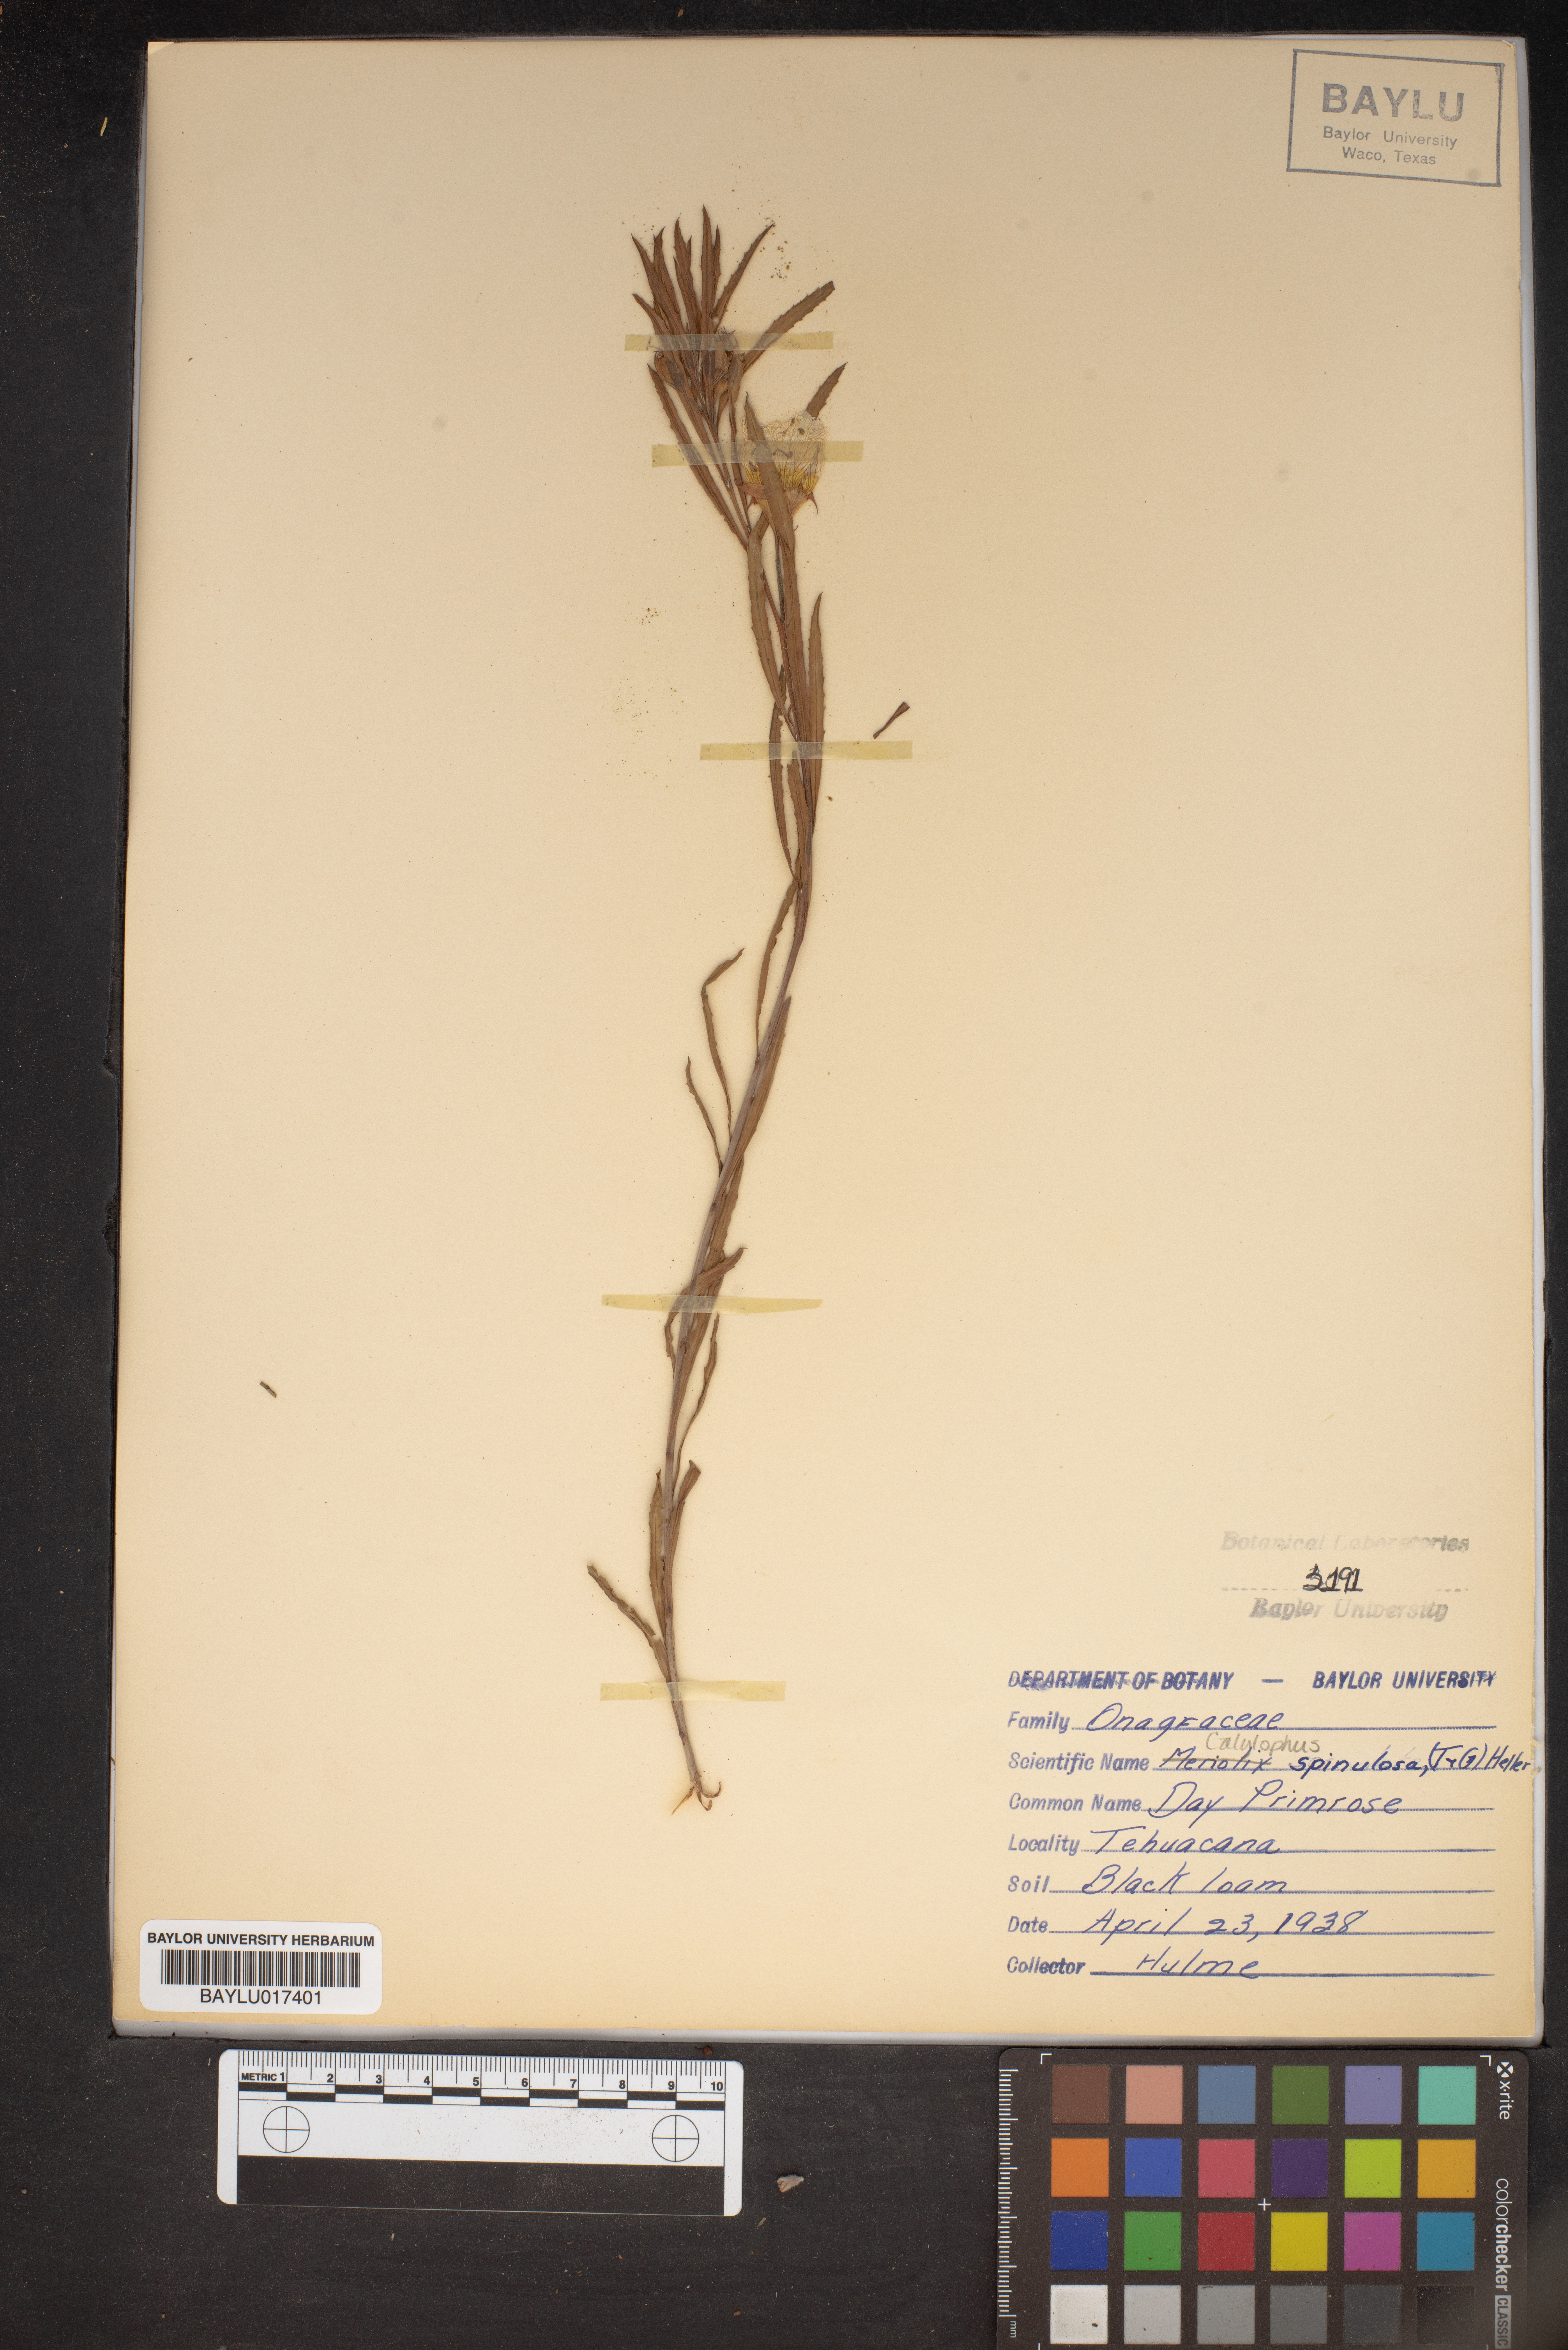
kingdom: Plantae
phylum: Tracheophyta
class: Magnoliopsida
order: Myrtales
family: Onagraceae
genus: Oenothera
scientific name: Oenothera
